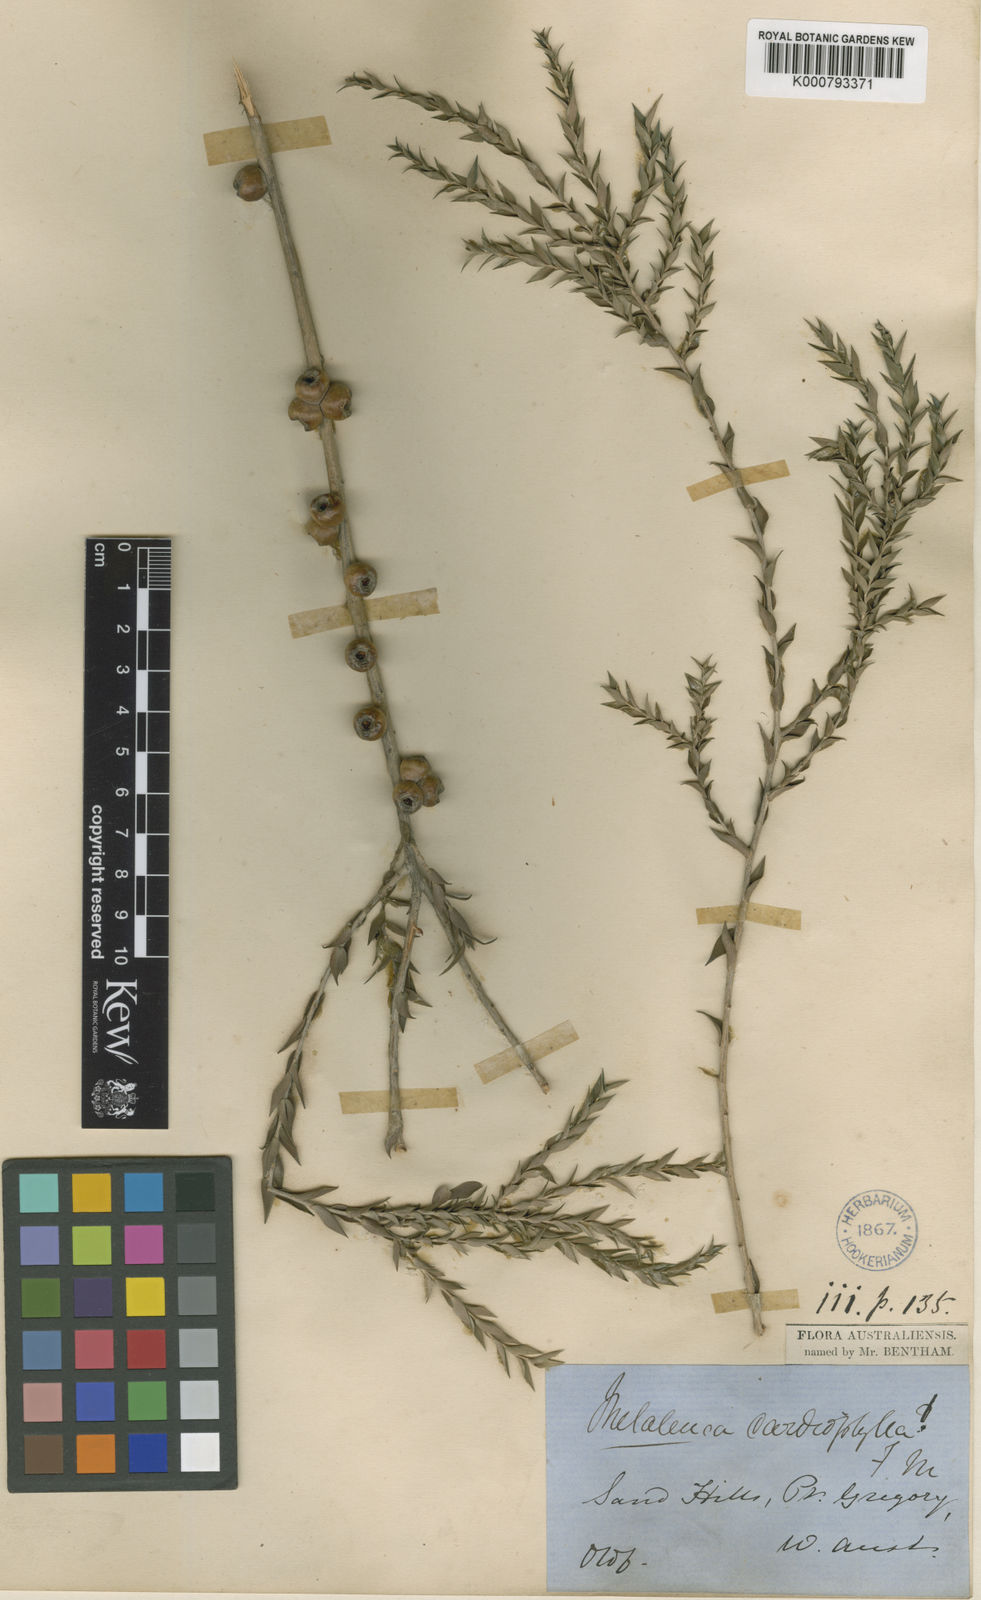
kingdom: Plantae
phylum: Tracheophyta
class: Magnoliopsida
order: Myrtales
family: Myrtaceae
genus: Melaleuca
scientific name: Melaleuca cardiophylla
